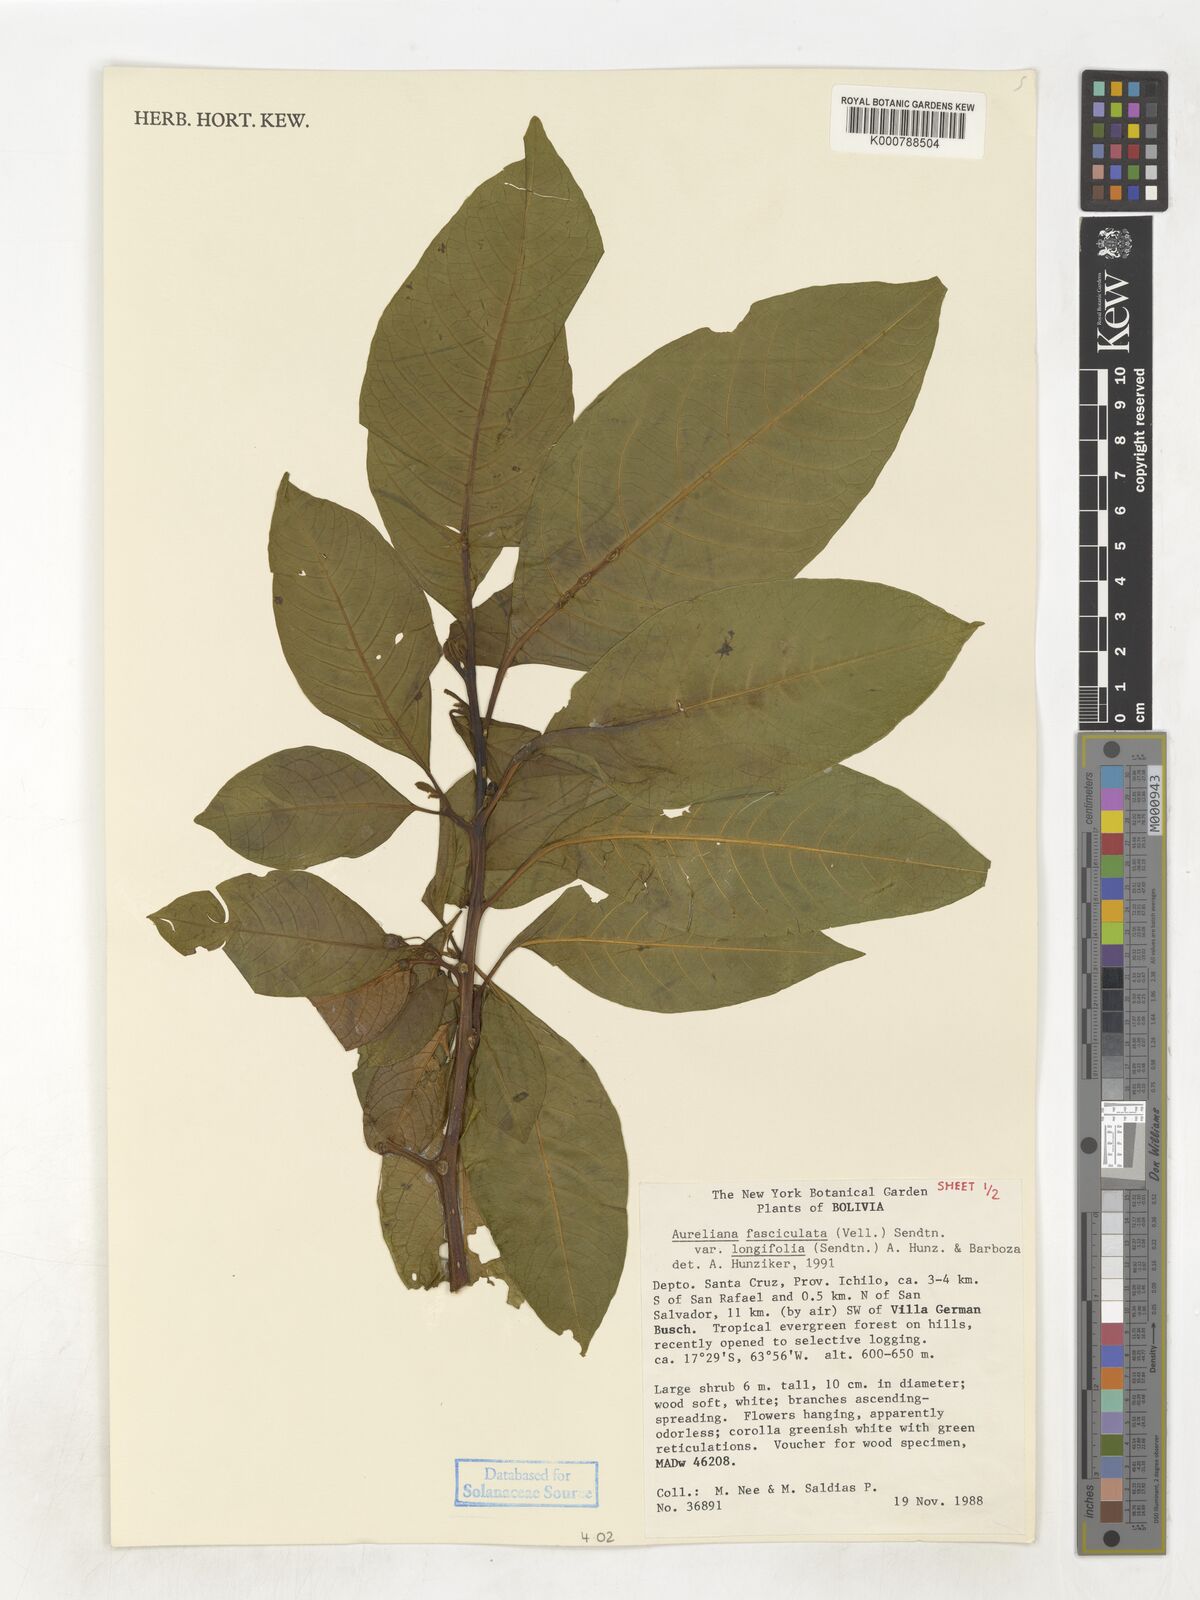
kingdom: Plantae
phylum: Tracheophyta
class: Magnoliopsida
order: Solanales
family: Solanaceae
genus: Athenaea
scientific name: Athenaea fasciculata
